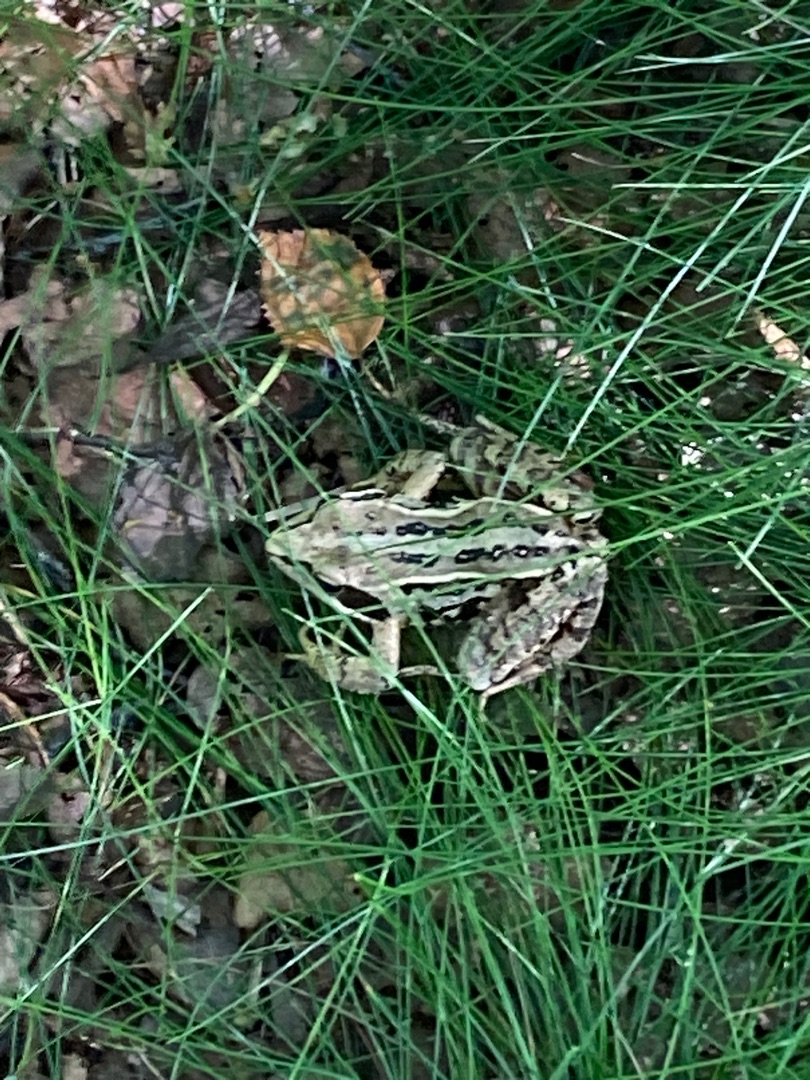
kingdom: Animalia
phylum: Chordata
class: Amphibia
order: Anura
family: Ranidae
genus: Rana
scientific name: Rana arvalis
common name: Spidssnudet frø
